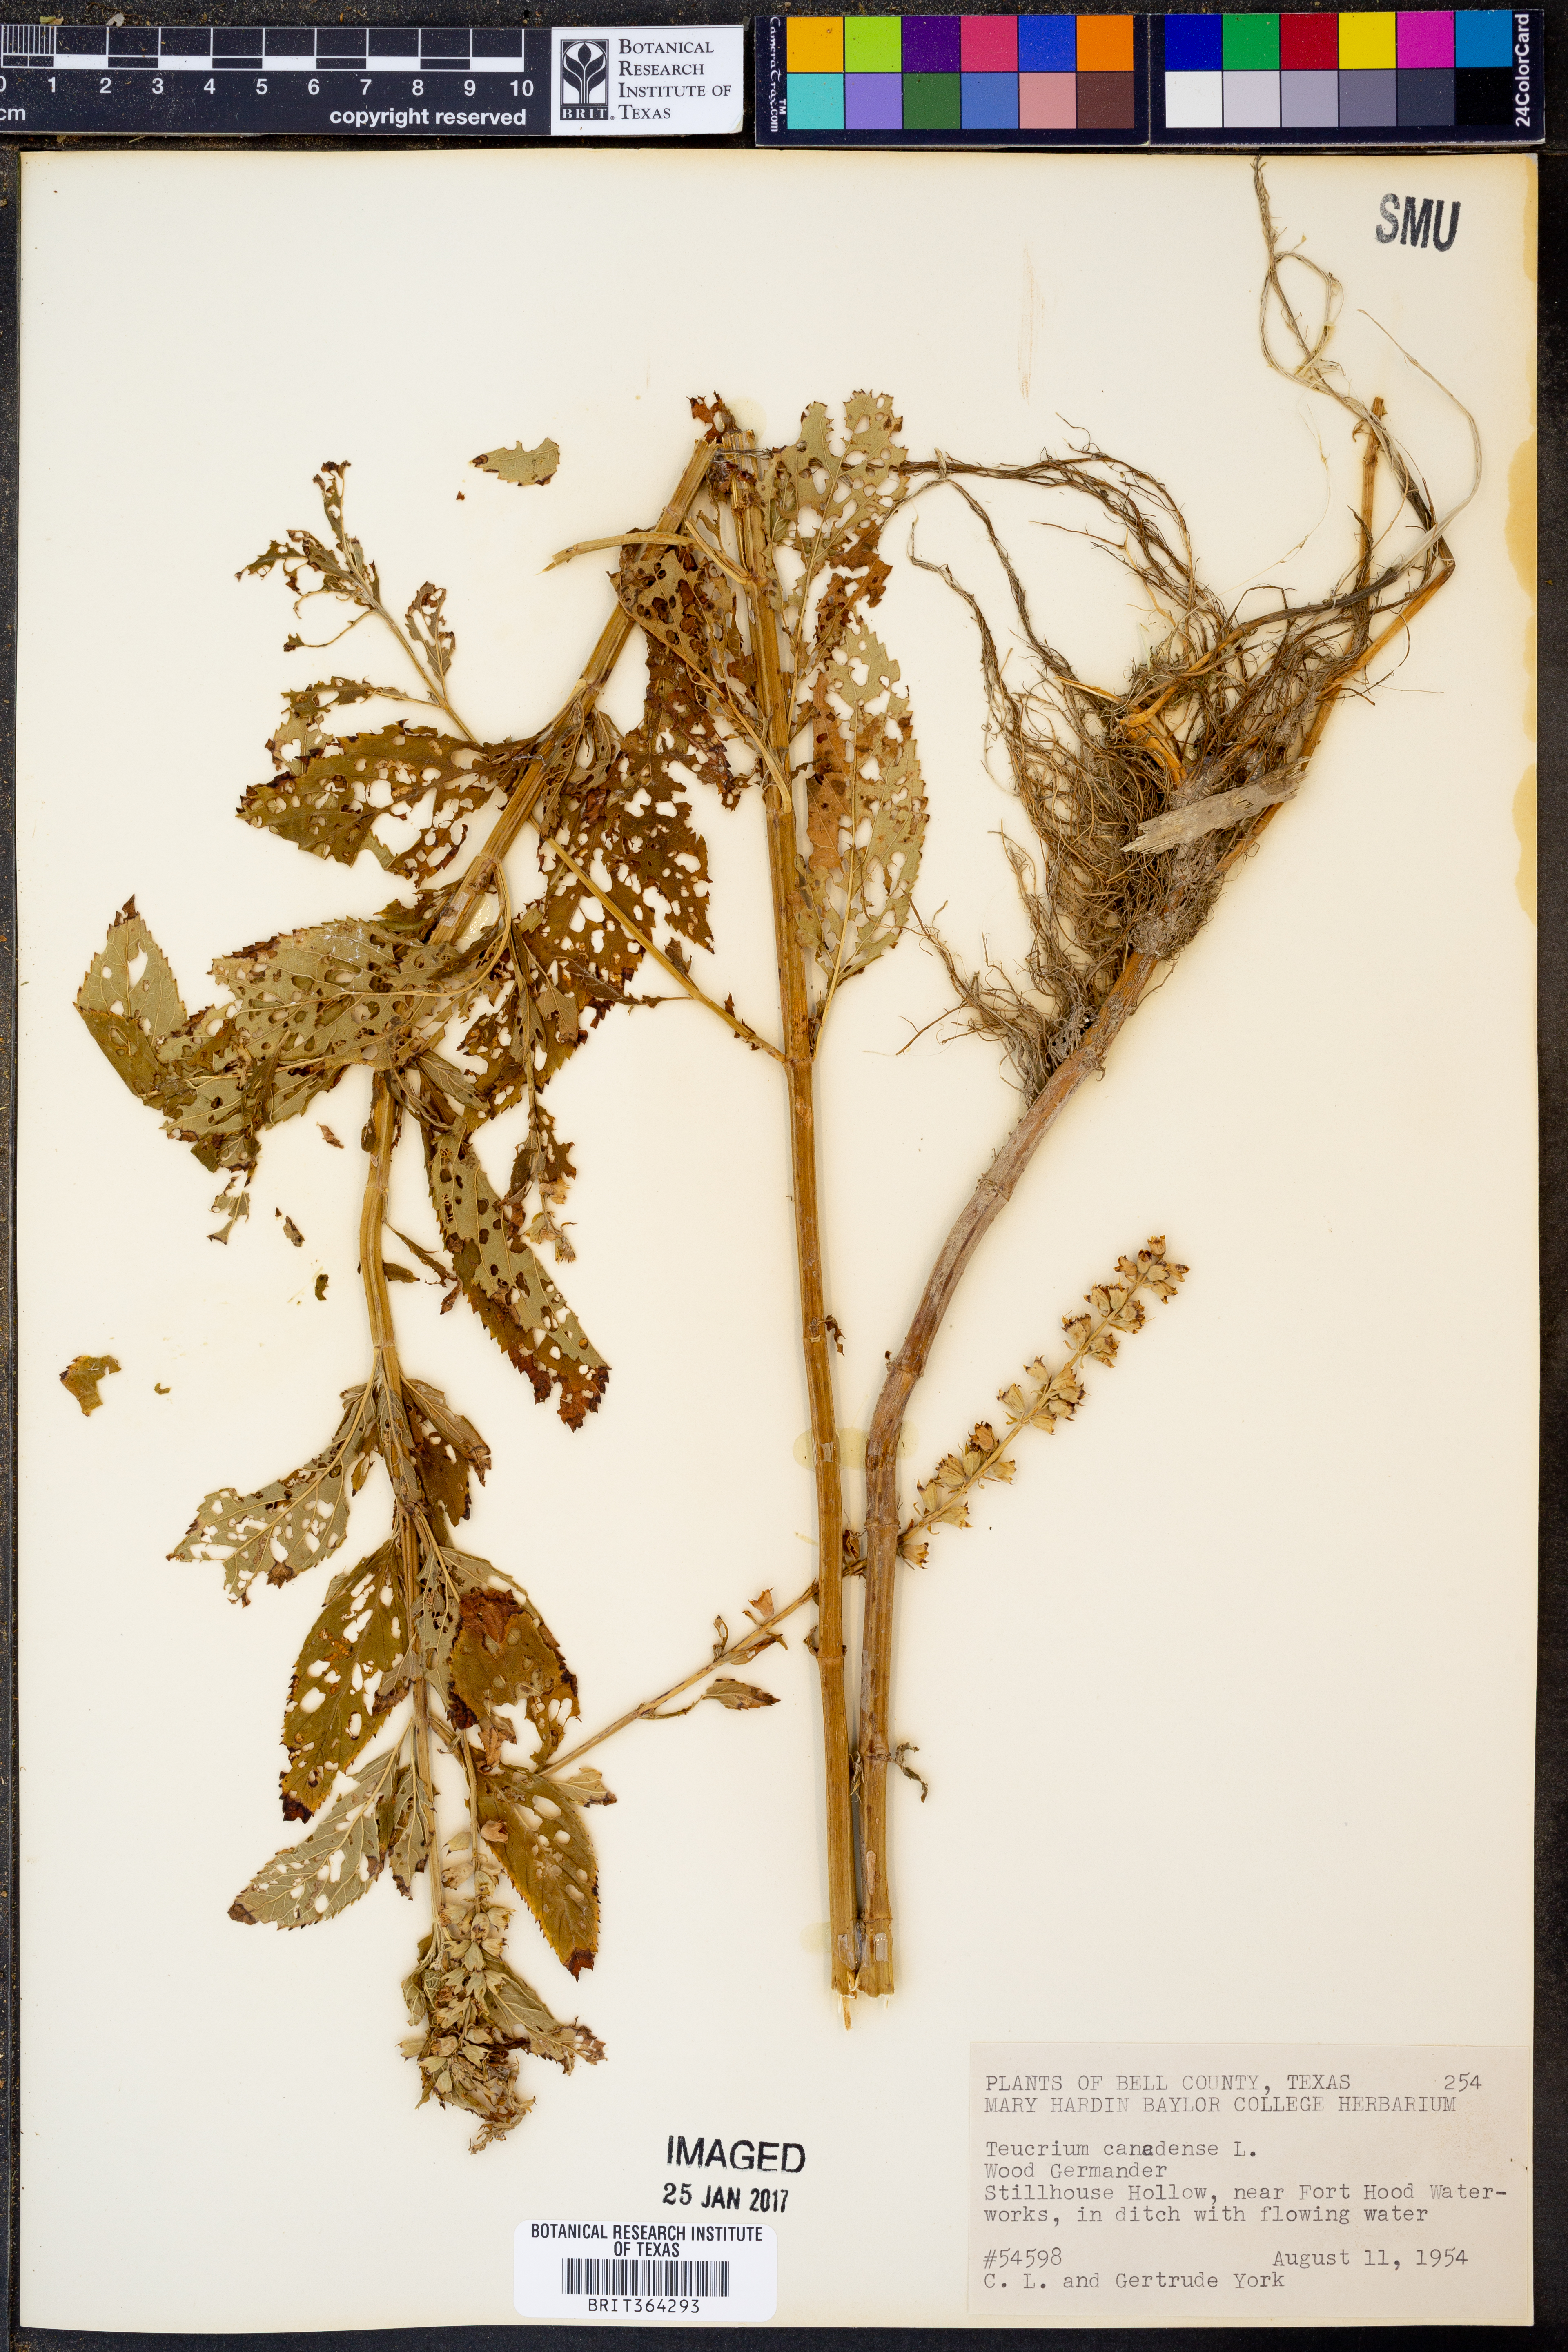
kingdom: Plantae
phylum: Tracheophyta
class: Magnoliopsida
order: Lamiales
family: Lamiaceae
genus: Teucrium
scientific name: Teucrium canadense
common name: American germander
